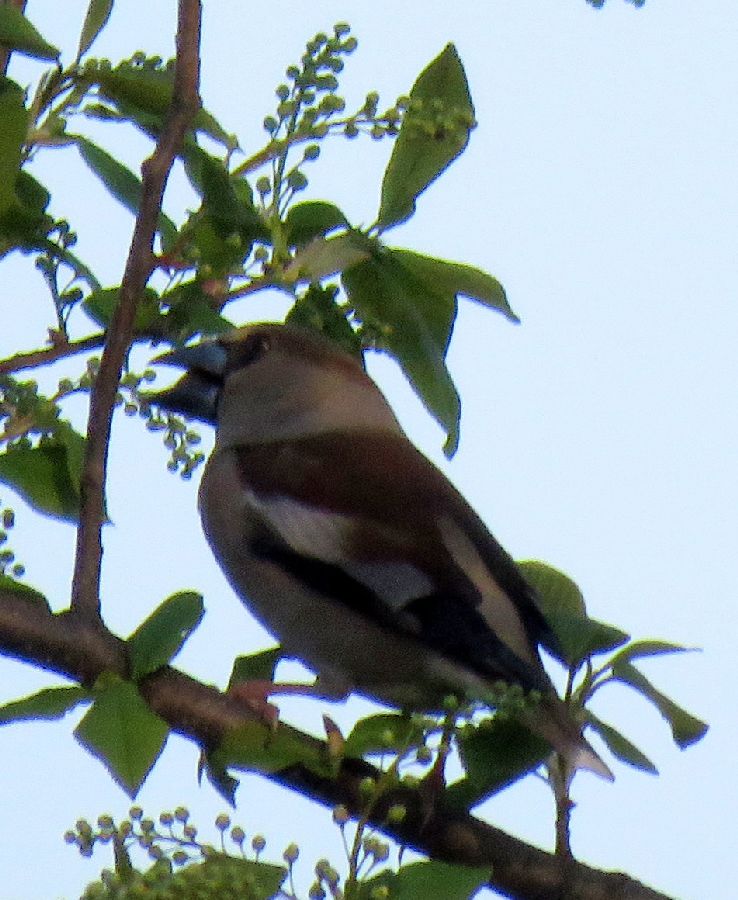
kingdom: Animalia
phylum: Chordata
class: Aves
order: Passeriformes
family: Fringillidae
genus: Coccothraustes
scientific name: Coccothraustes coccothraustes
